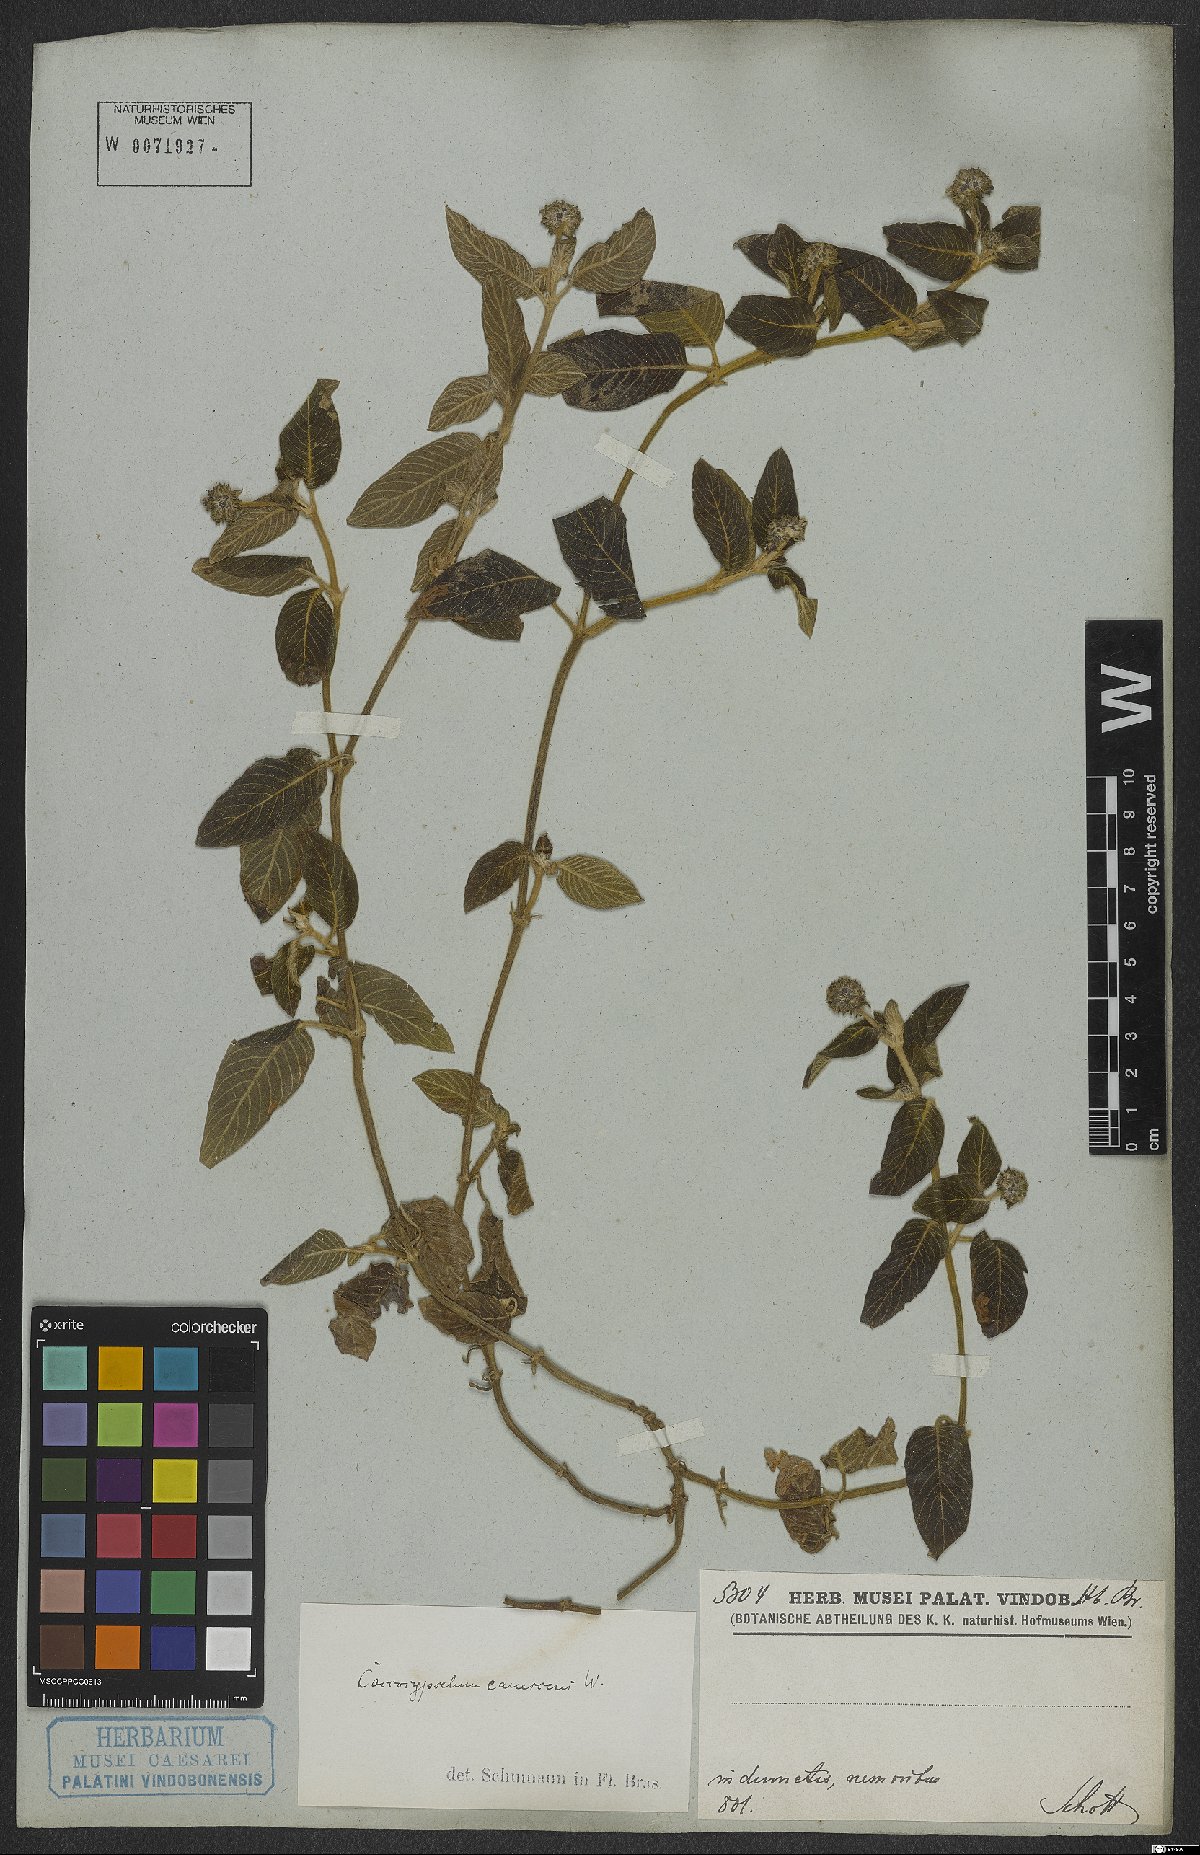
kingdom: Plantae
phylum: Tracheophyta
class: Magnoliopsida
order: Gentianales
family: Rubiaceae
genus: Coccocypselum
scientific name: Coccocypselum lanceolatum
